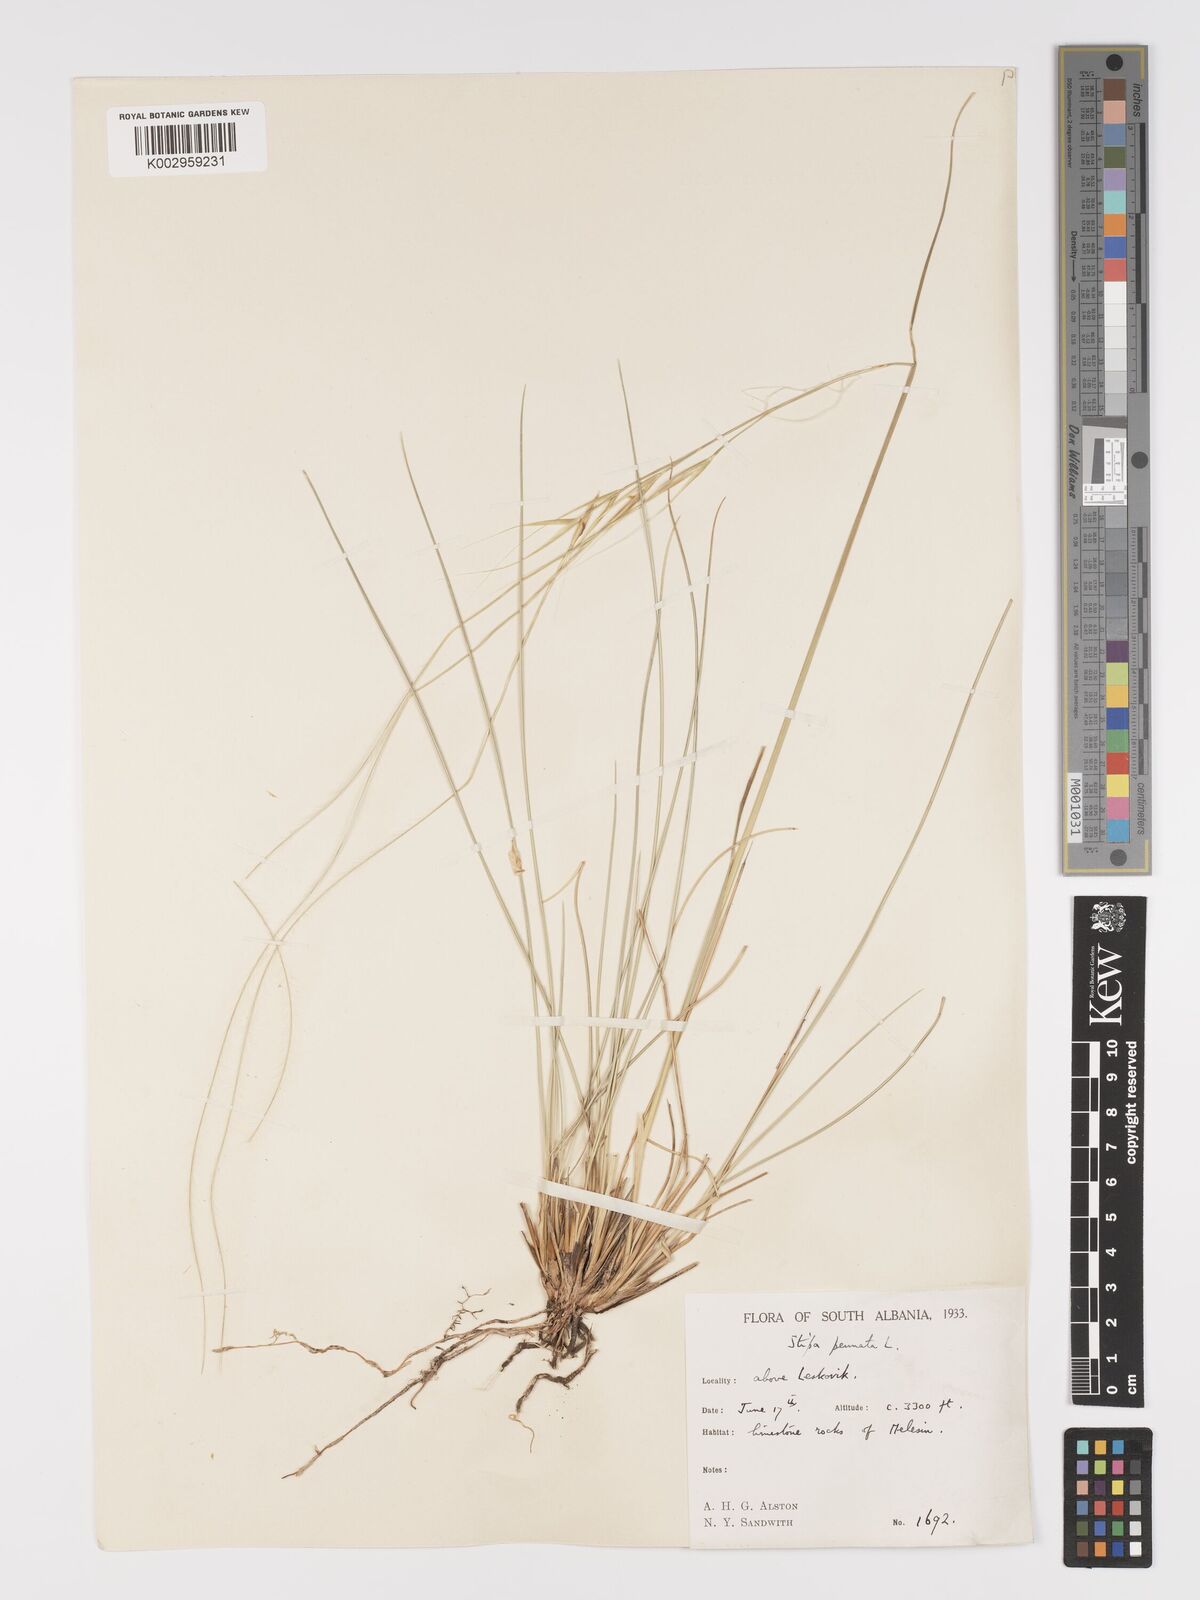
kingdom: Plantae
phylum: Tracheophyta
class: Liliopsida
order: Poales
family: Poaceae
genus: Stipa
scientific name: Stipa pennata
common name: European feather grass
